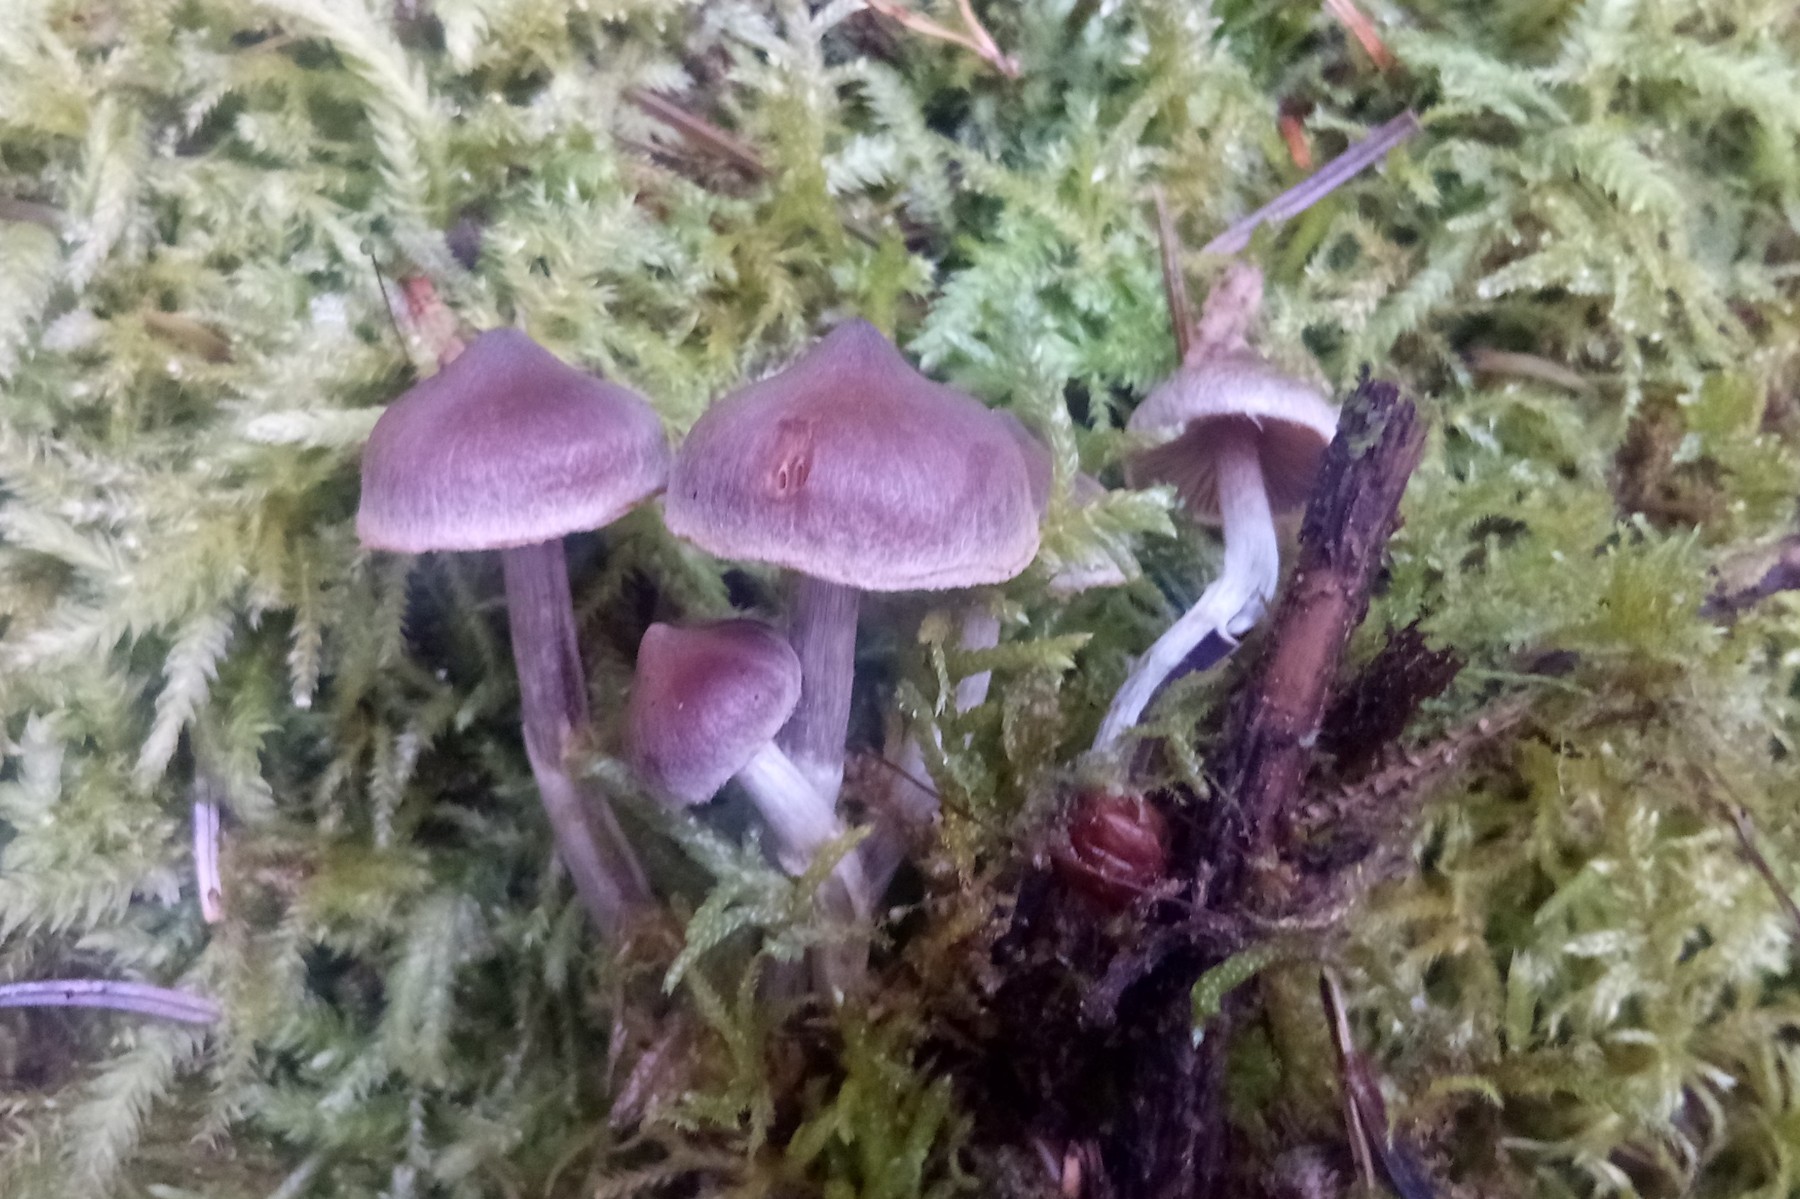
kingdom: Fungi
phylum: Basidiomycota
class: Agaricomycetes
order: Agaricales
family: Cortinariaceae
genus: Cortinarius
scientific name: Cortinarius famatus
